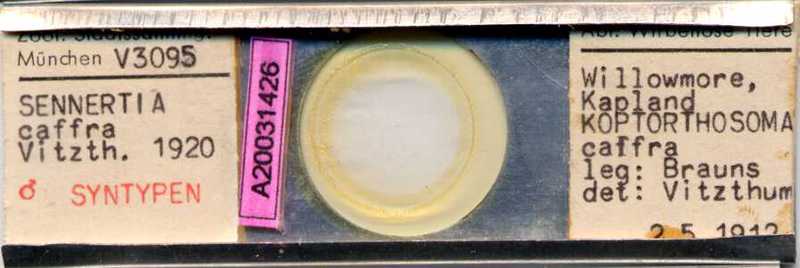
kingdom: Animalia
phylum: Arthropoda
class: Arachnida
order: Sarcoptiformes
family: Chaetodactylidae
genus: Sennertia
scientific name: Sennertia caffra
